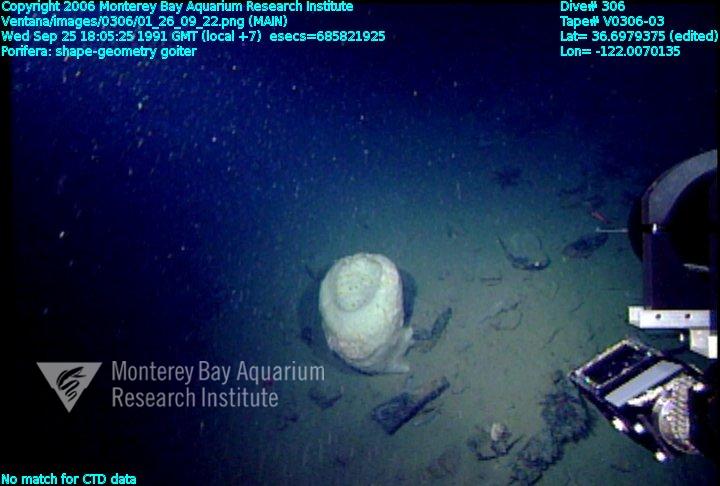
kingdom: Animalia
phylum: Porifera
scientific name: Porifera
